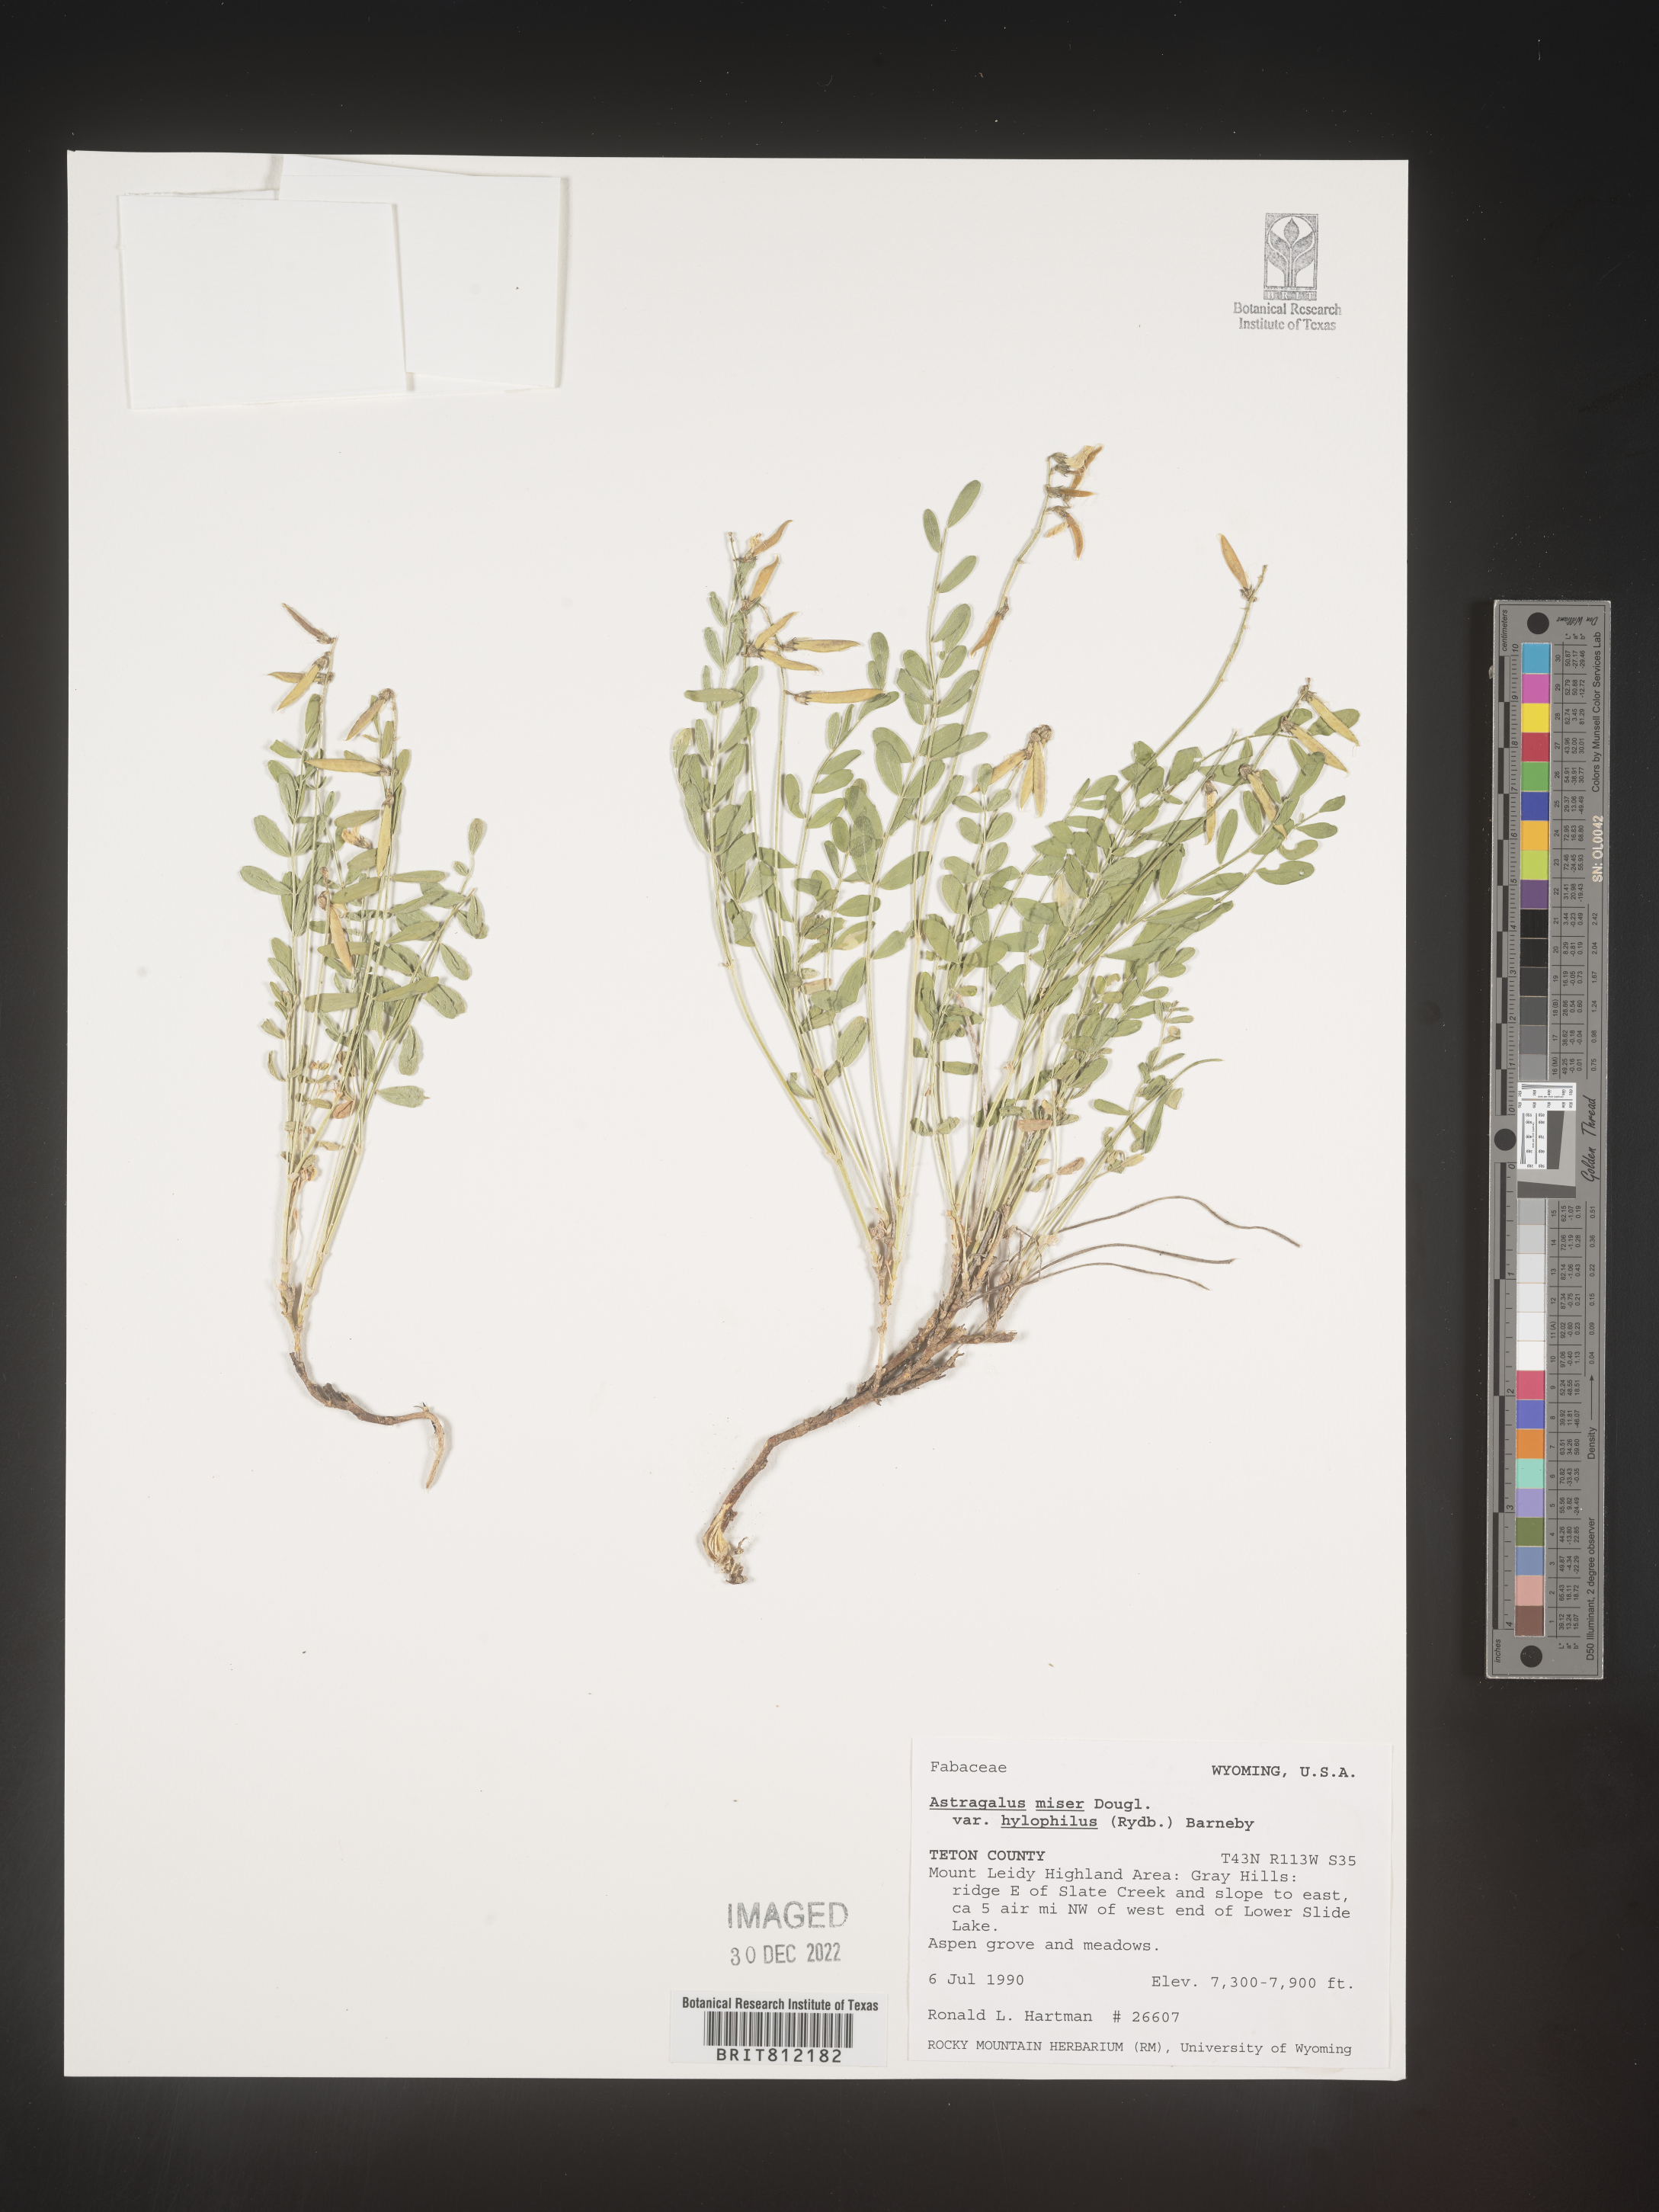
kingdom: Plantae
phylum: Tracheophyta
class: Magnoliopsida
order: Fabales
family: Fabaceae
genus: Astragalus
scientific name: Astragalus miser
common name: Timber milkvetch
